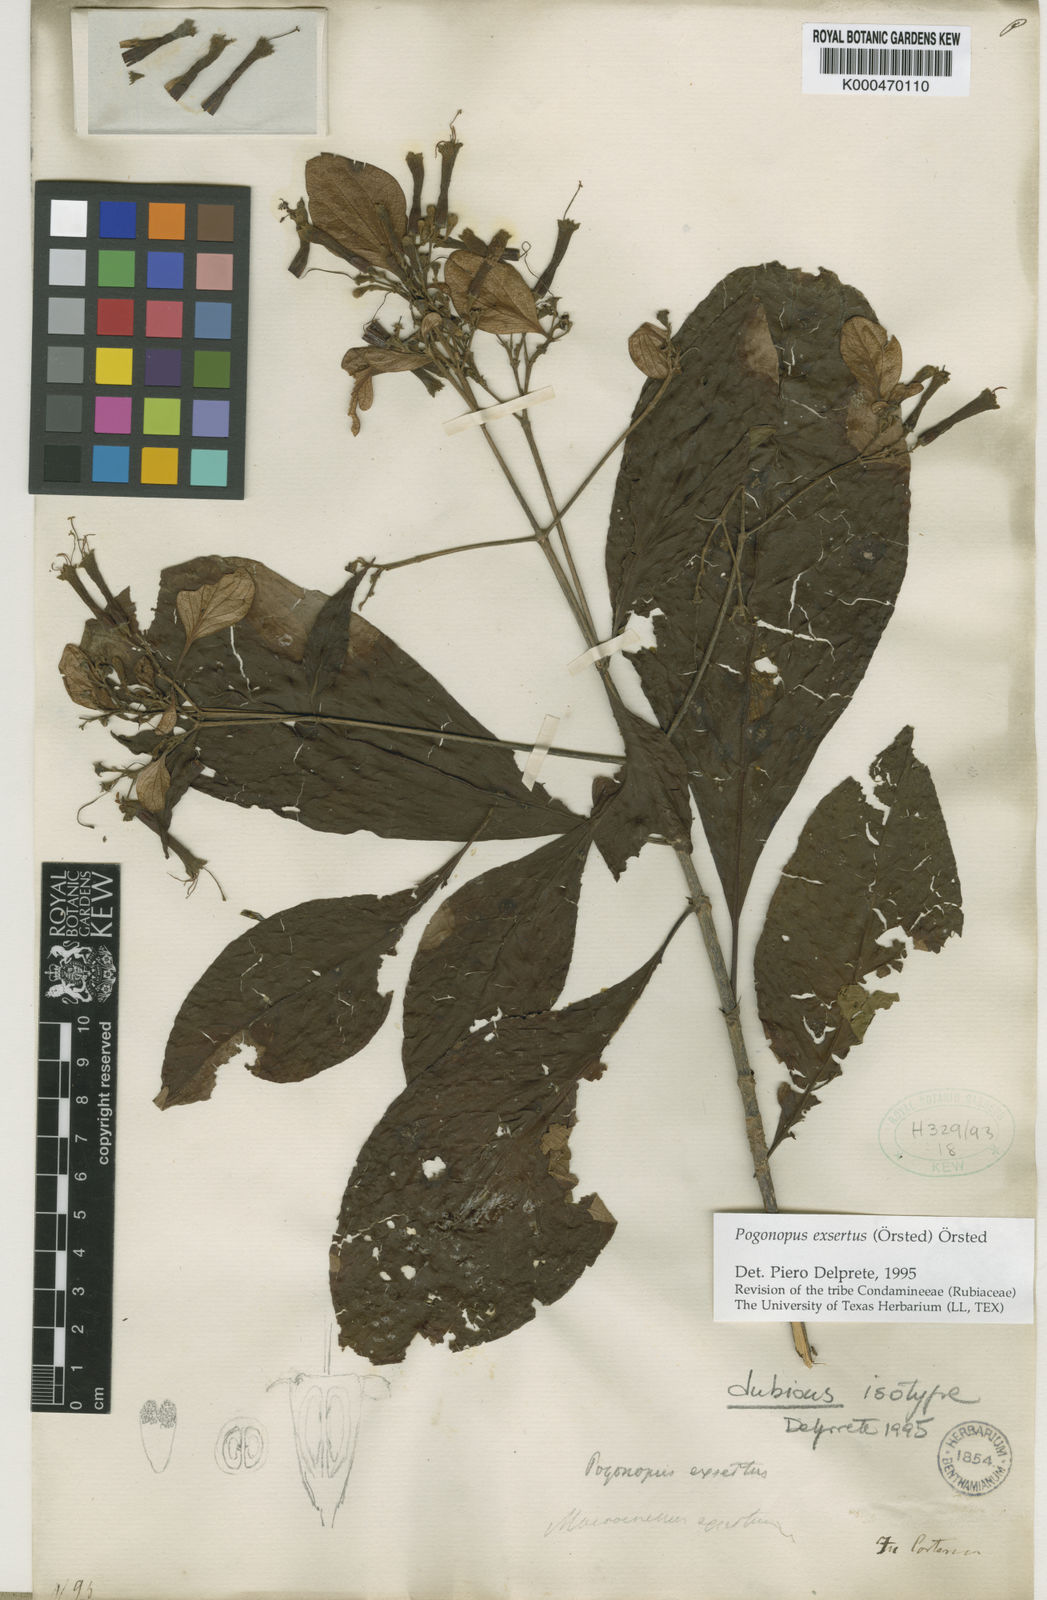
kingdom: Plantae
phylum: Tracheophyta
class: Magnoliopsida
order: Gentianales
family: Rubiaceae
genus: Pogonopus
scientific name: Pogonopus speciosus
